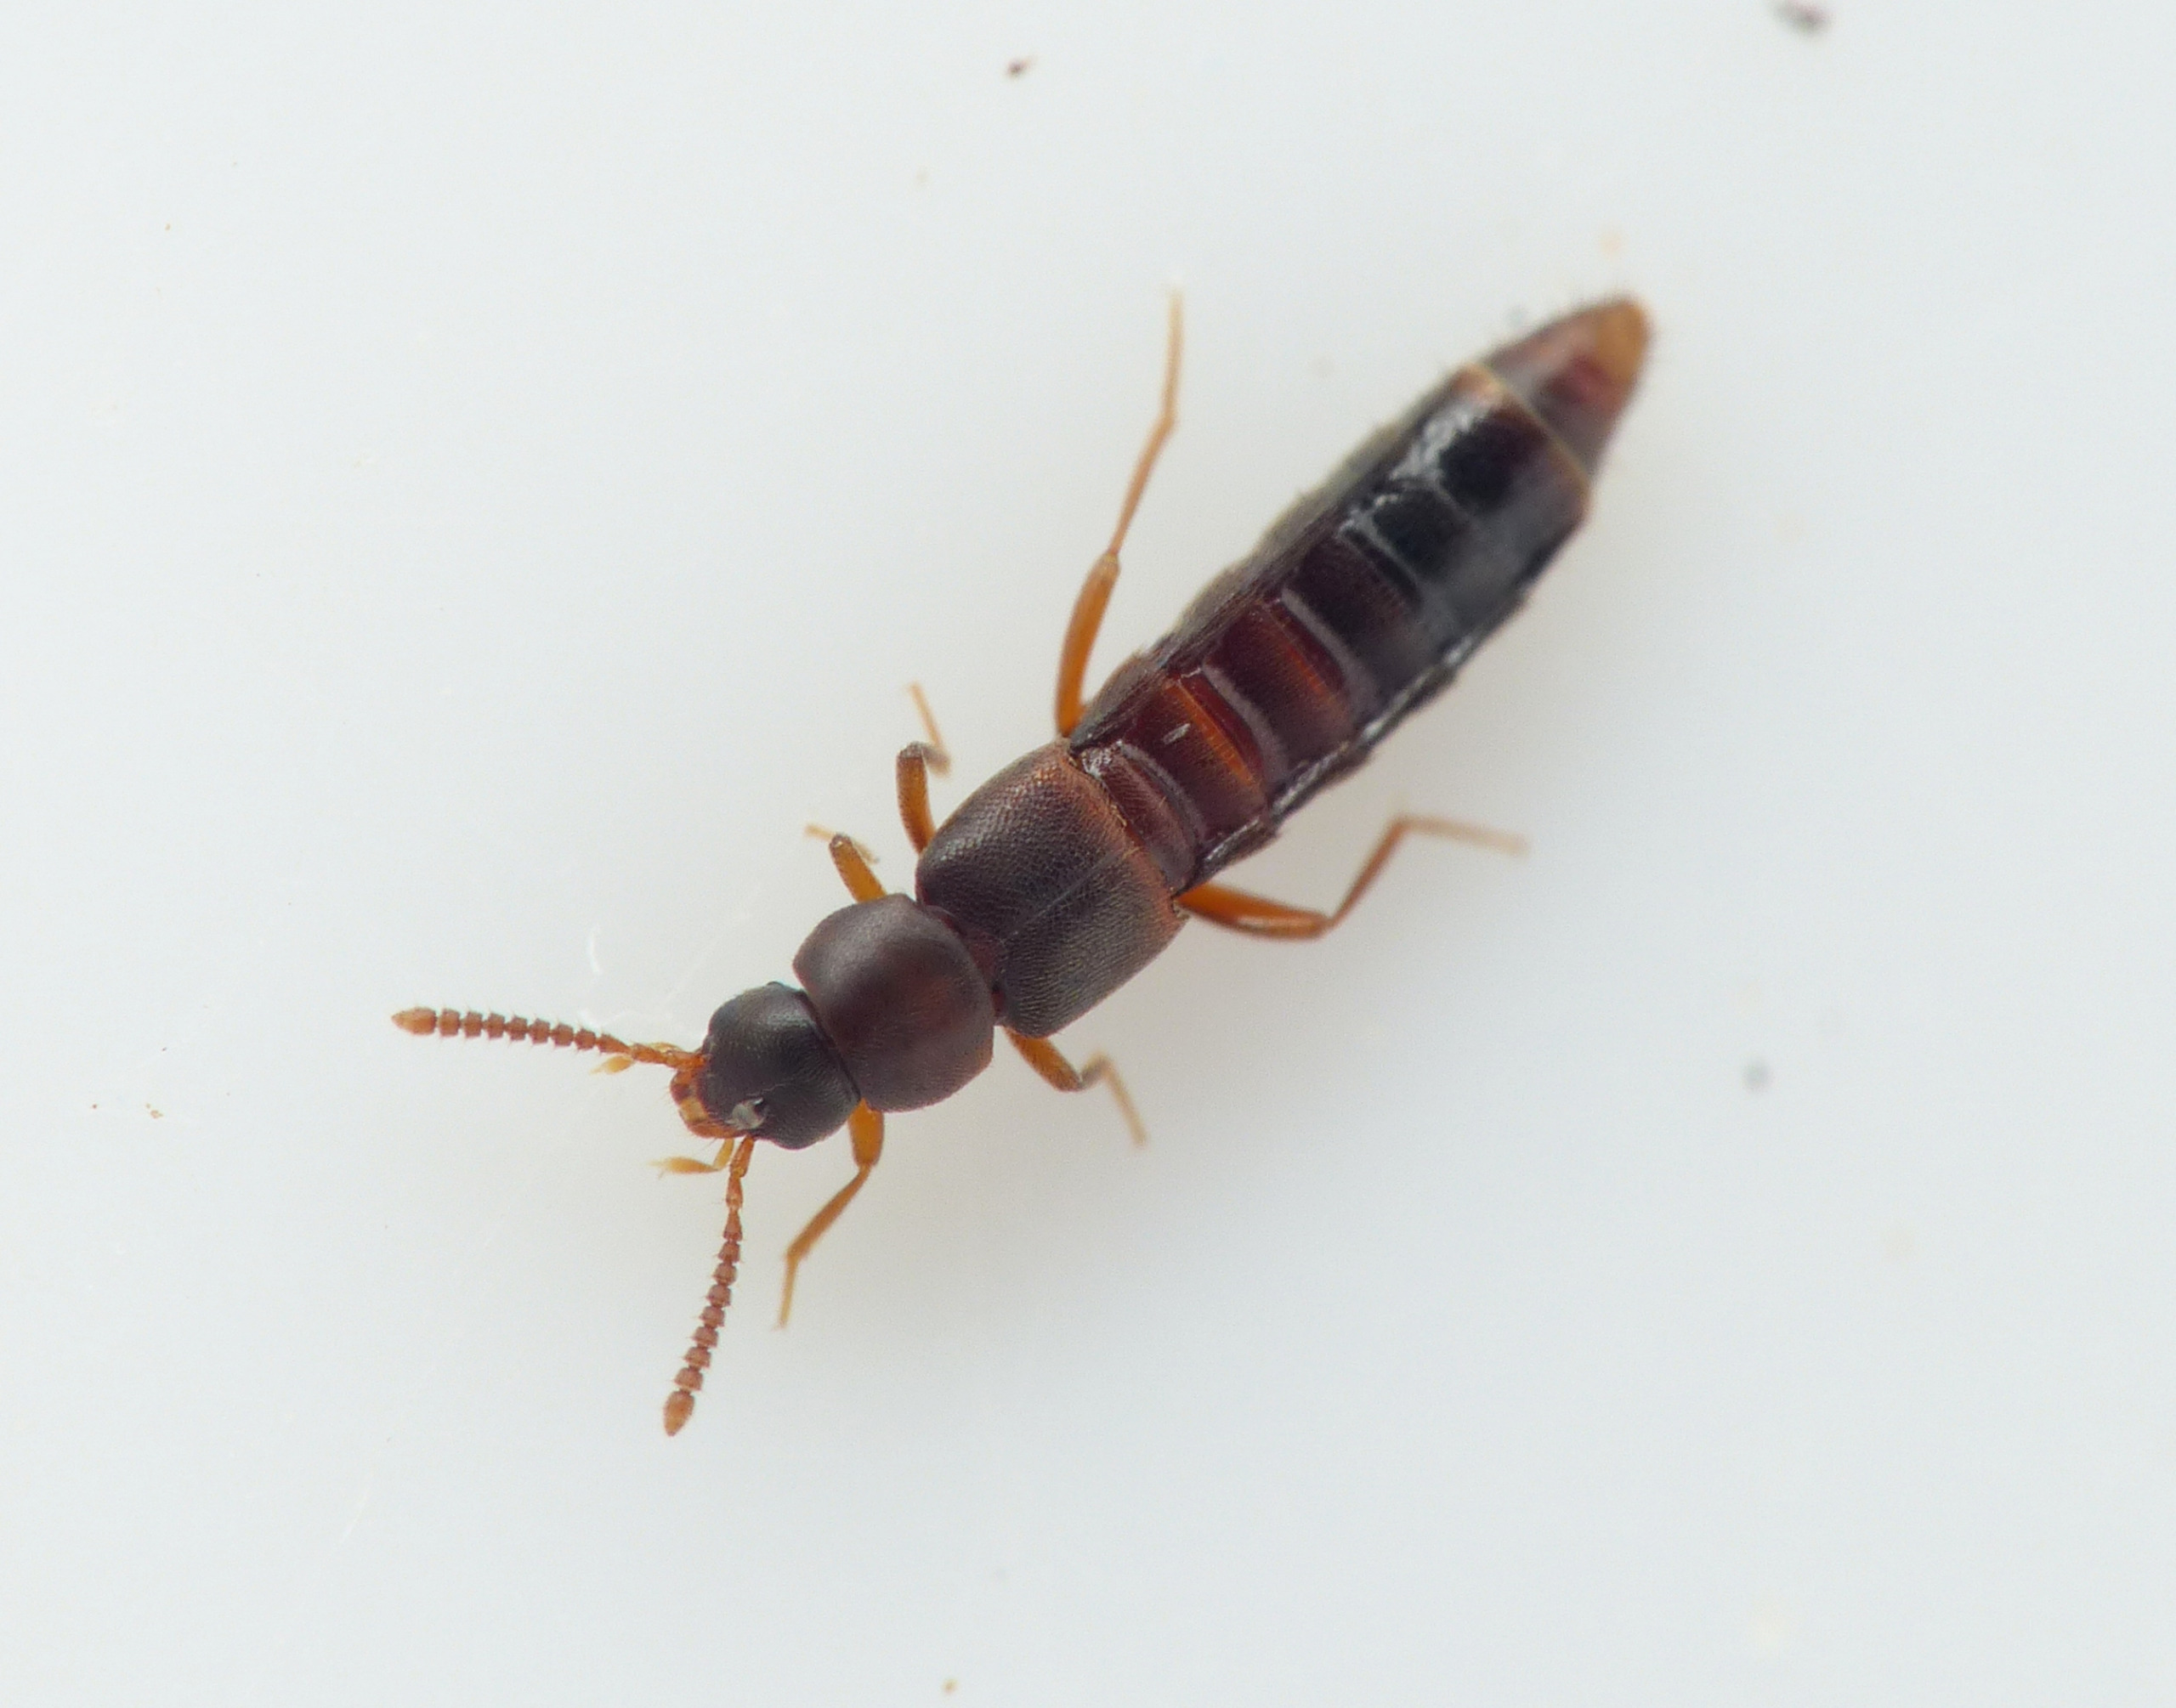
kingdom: Animalia
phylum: Arthropoda
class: Insecta
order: Coleoptera
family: Staphylinidae
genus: Leptusa
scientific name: Leptusa pulchella
